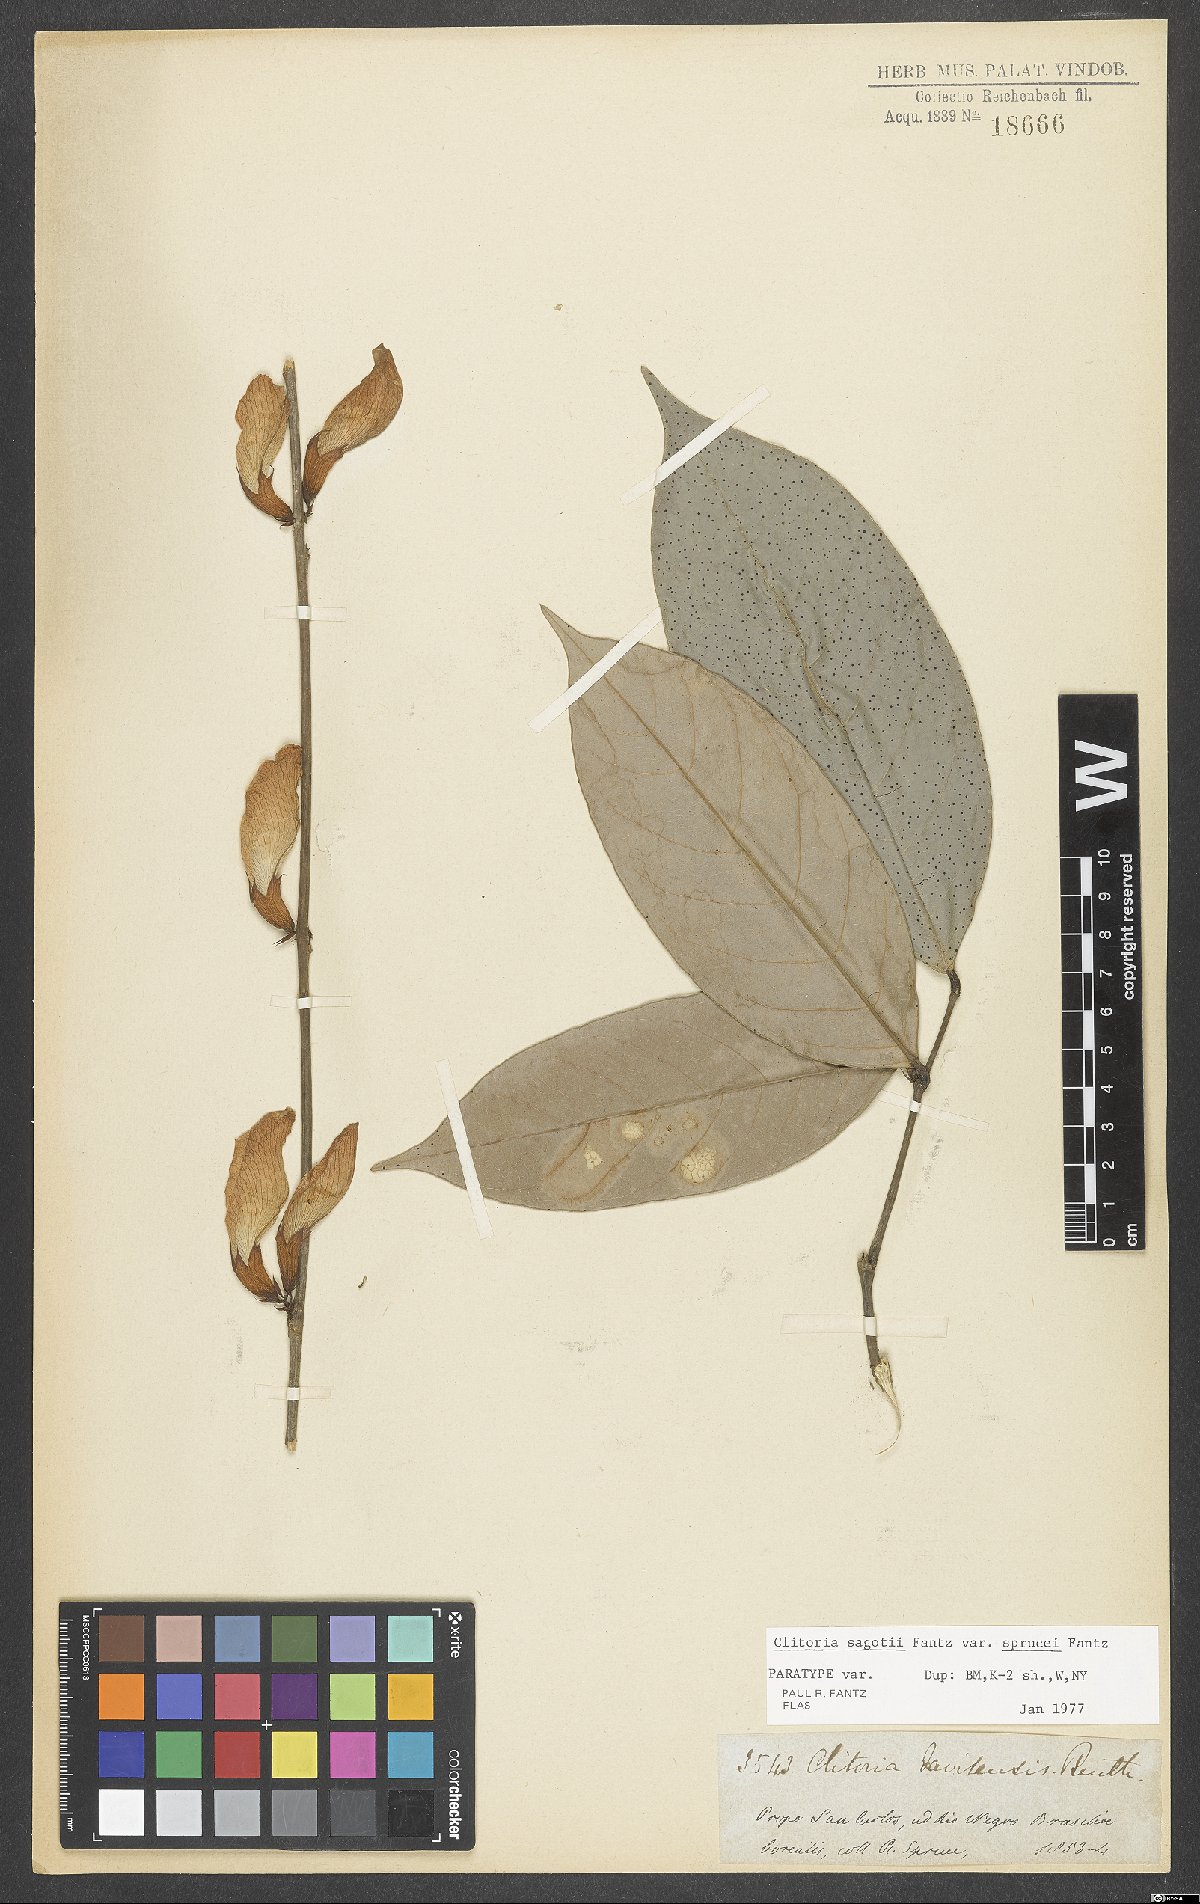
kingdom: Plantae
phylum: Tracheophyta
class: Magnoliopsida
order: Fabales
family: Fabaceae
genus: Clitoria
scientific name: Clitoria sagotii
